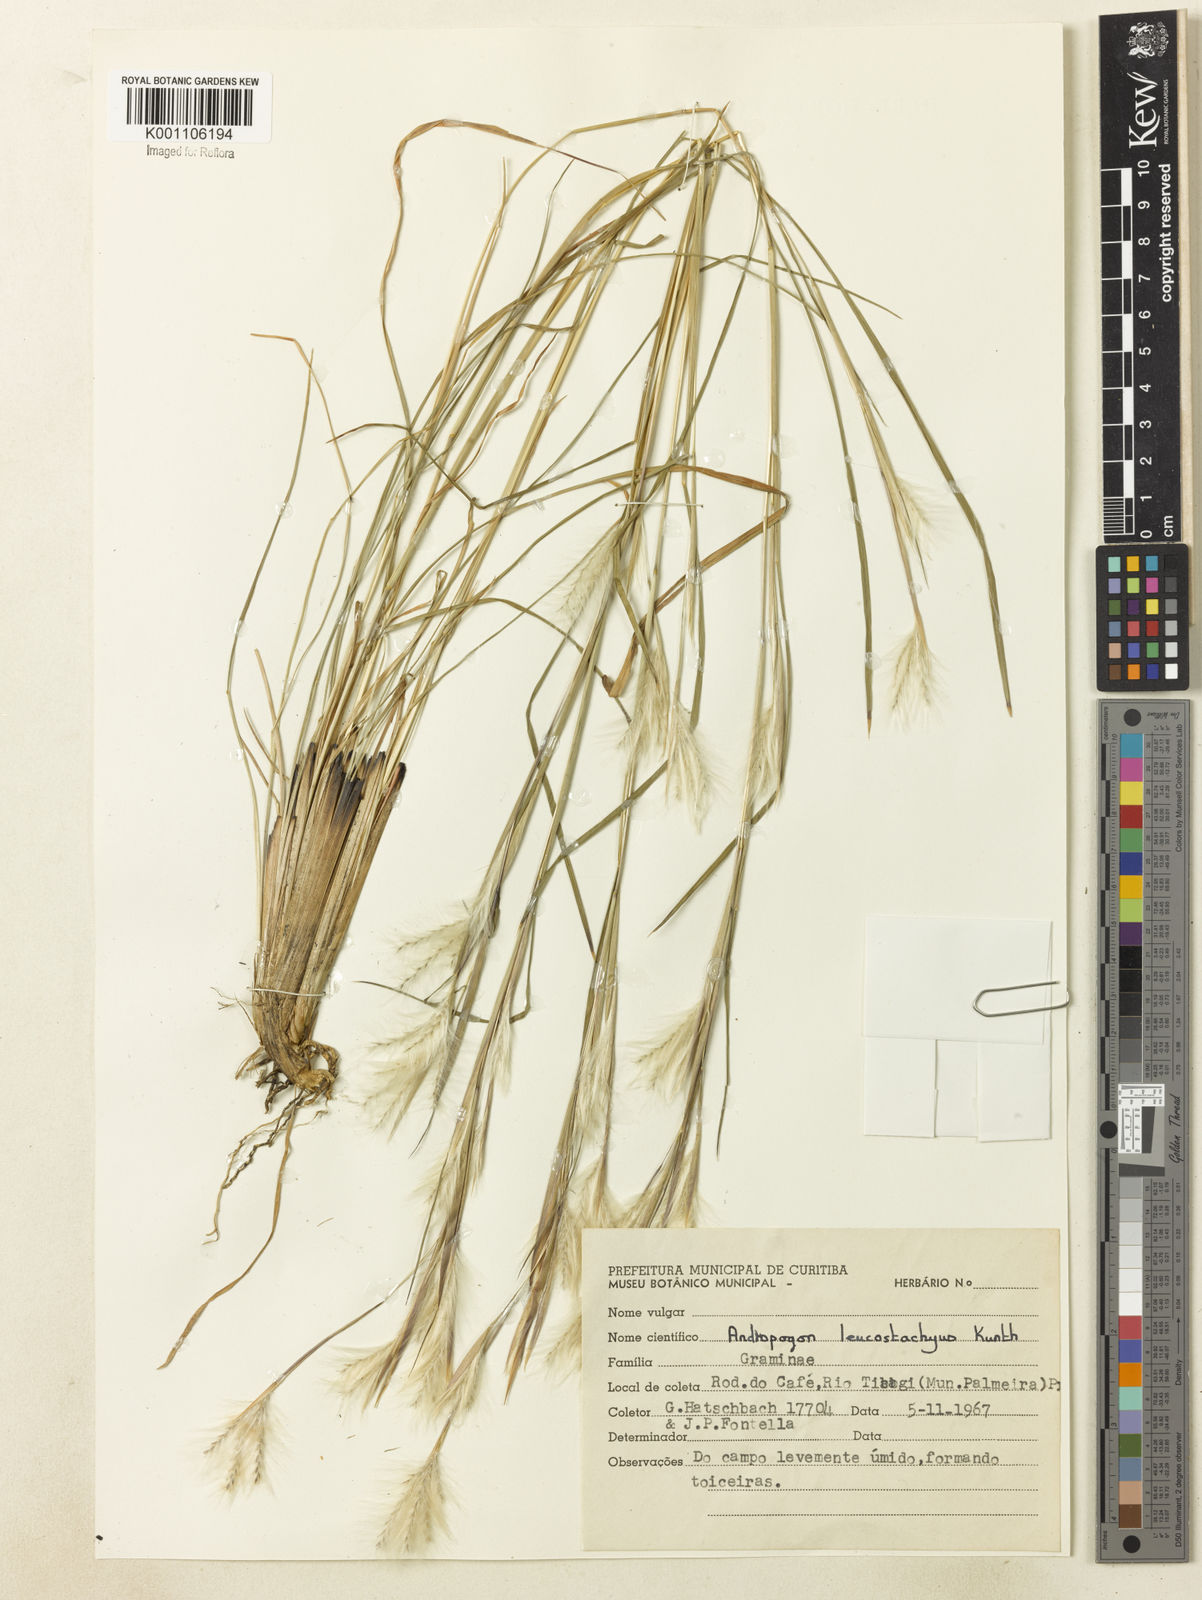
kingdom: Plantae
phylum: Tracheophyta
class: Liliopsida
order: Poales
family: Poaceae
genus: Andropogon
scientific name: Andropogon leucostachyus
